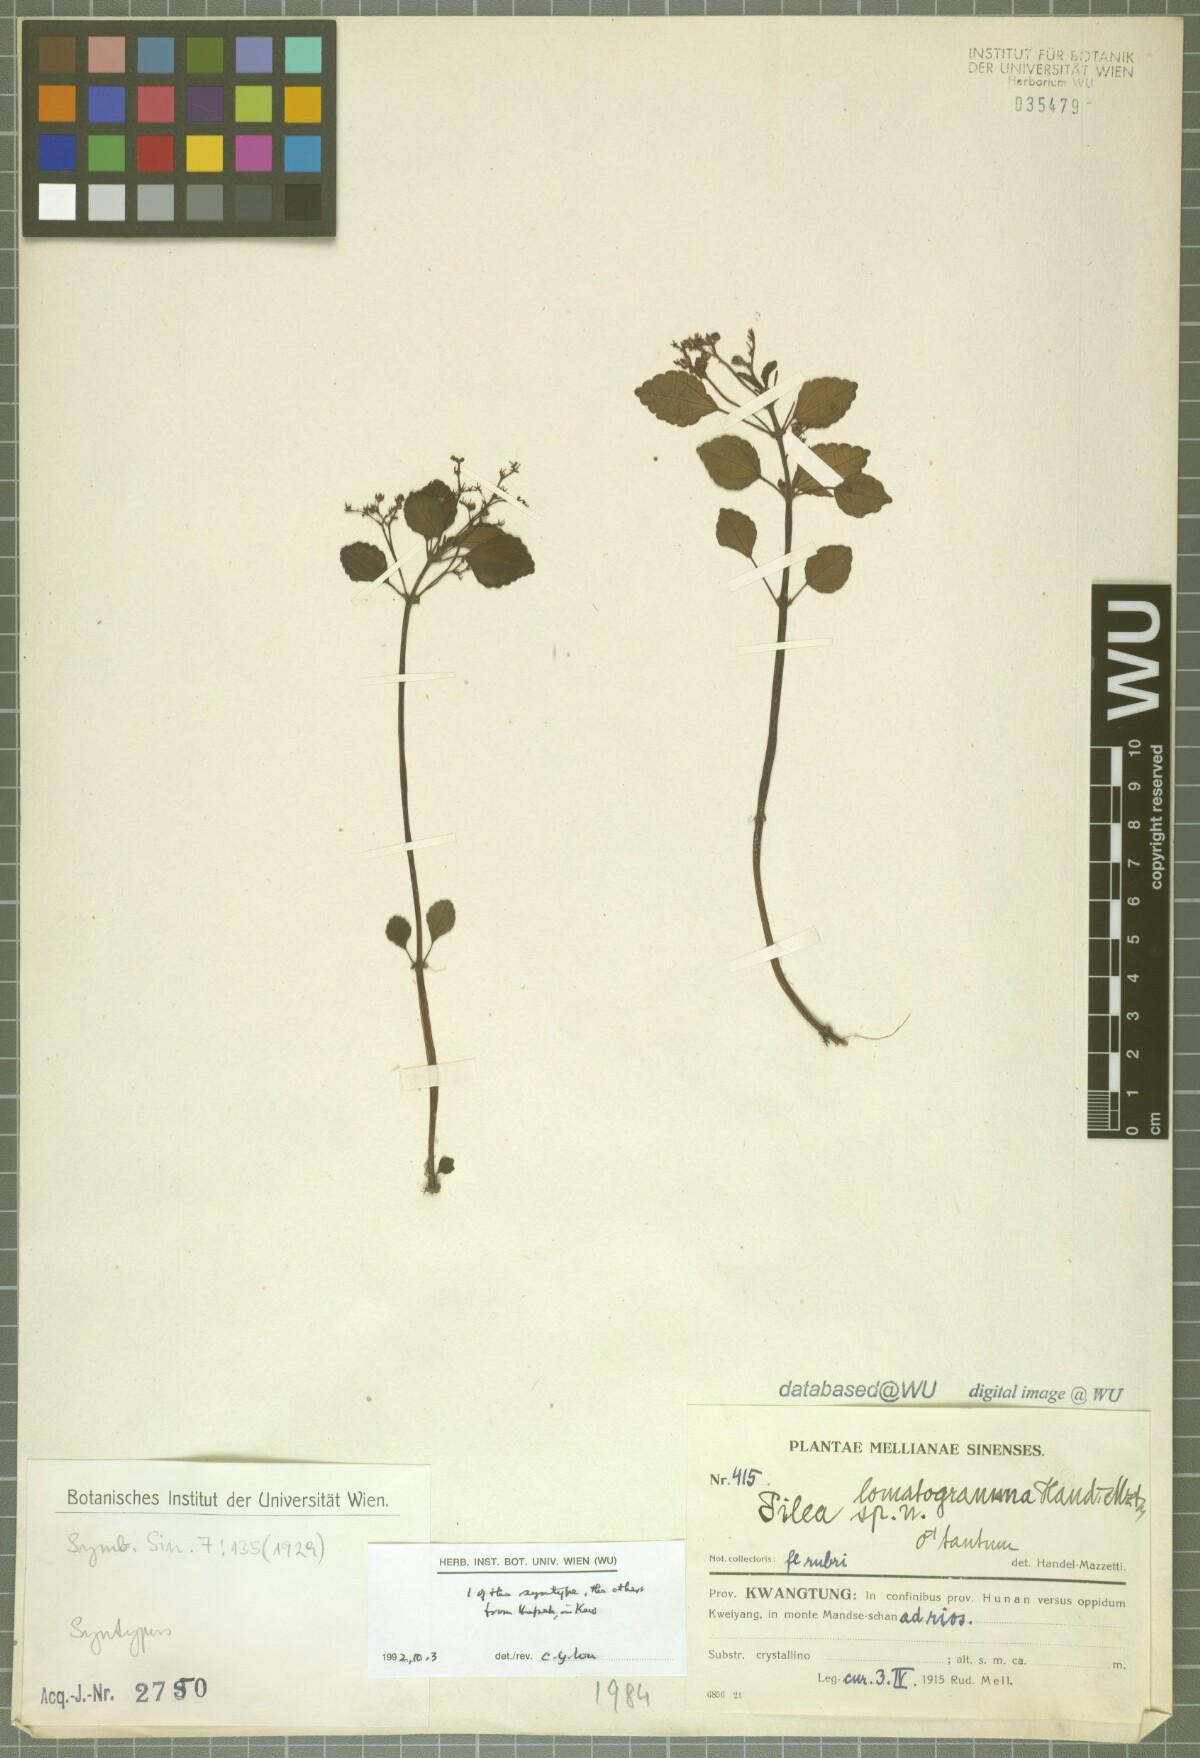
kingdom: Plantae
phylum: Tracheophyta
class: Magnoliopsida
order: Rosales
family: Urticaceae
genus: Pilea
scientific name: Pilea lomatogramma
